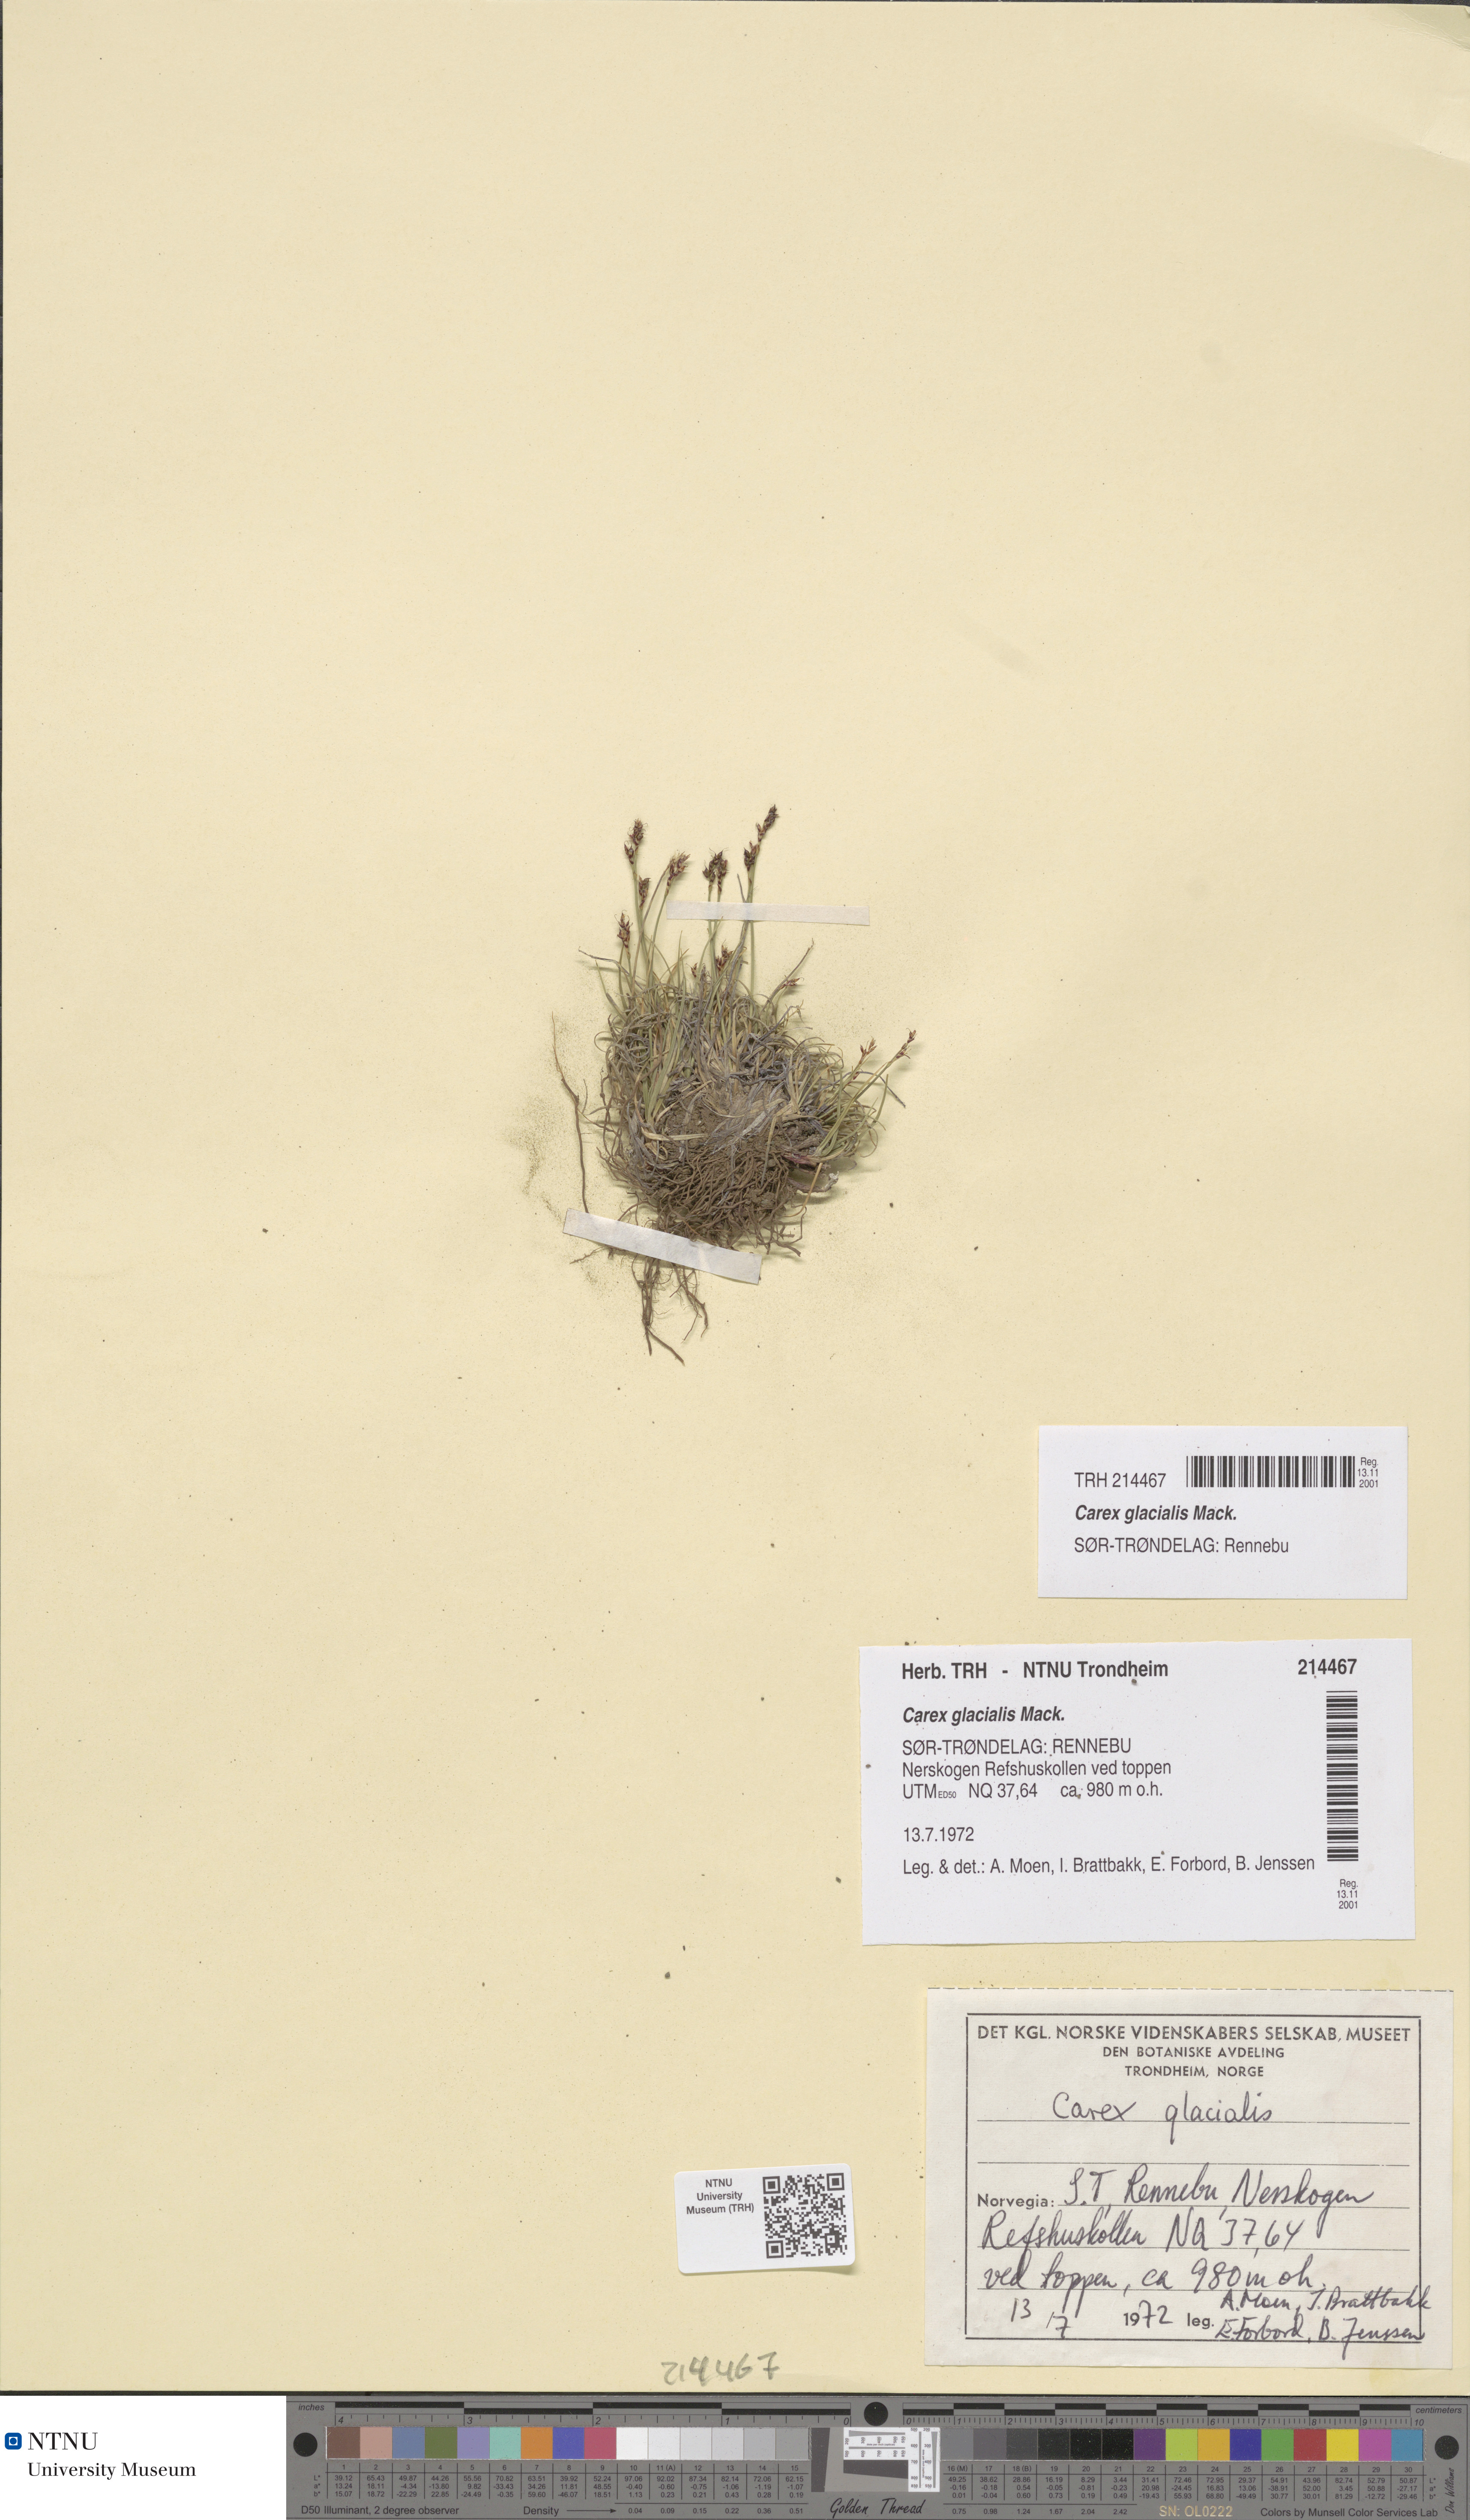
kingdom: Plantae
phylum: Tracheophyta
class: Liliopsida
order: Poales
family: Cyperaceae
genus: Carex
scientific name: Carex glacialis
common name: Newfoundland sedge
